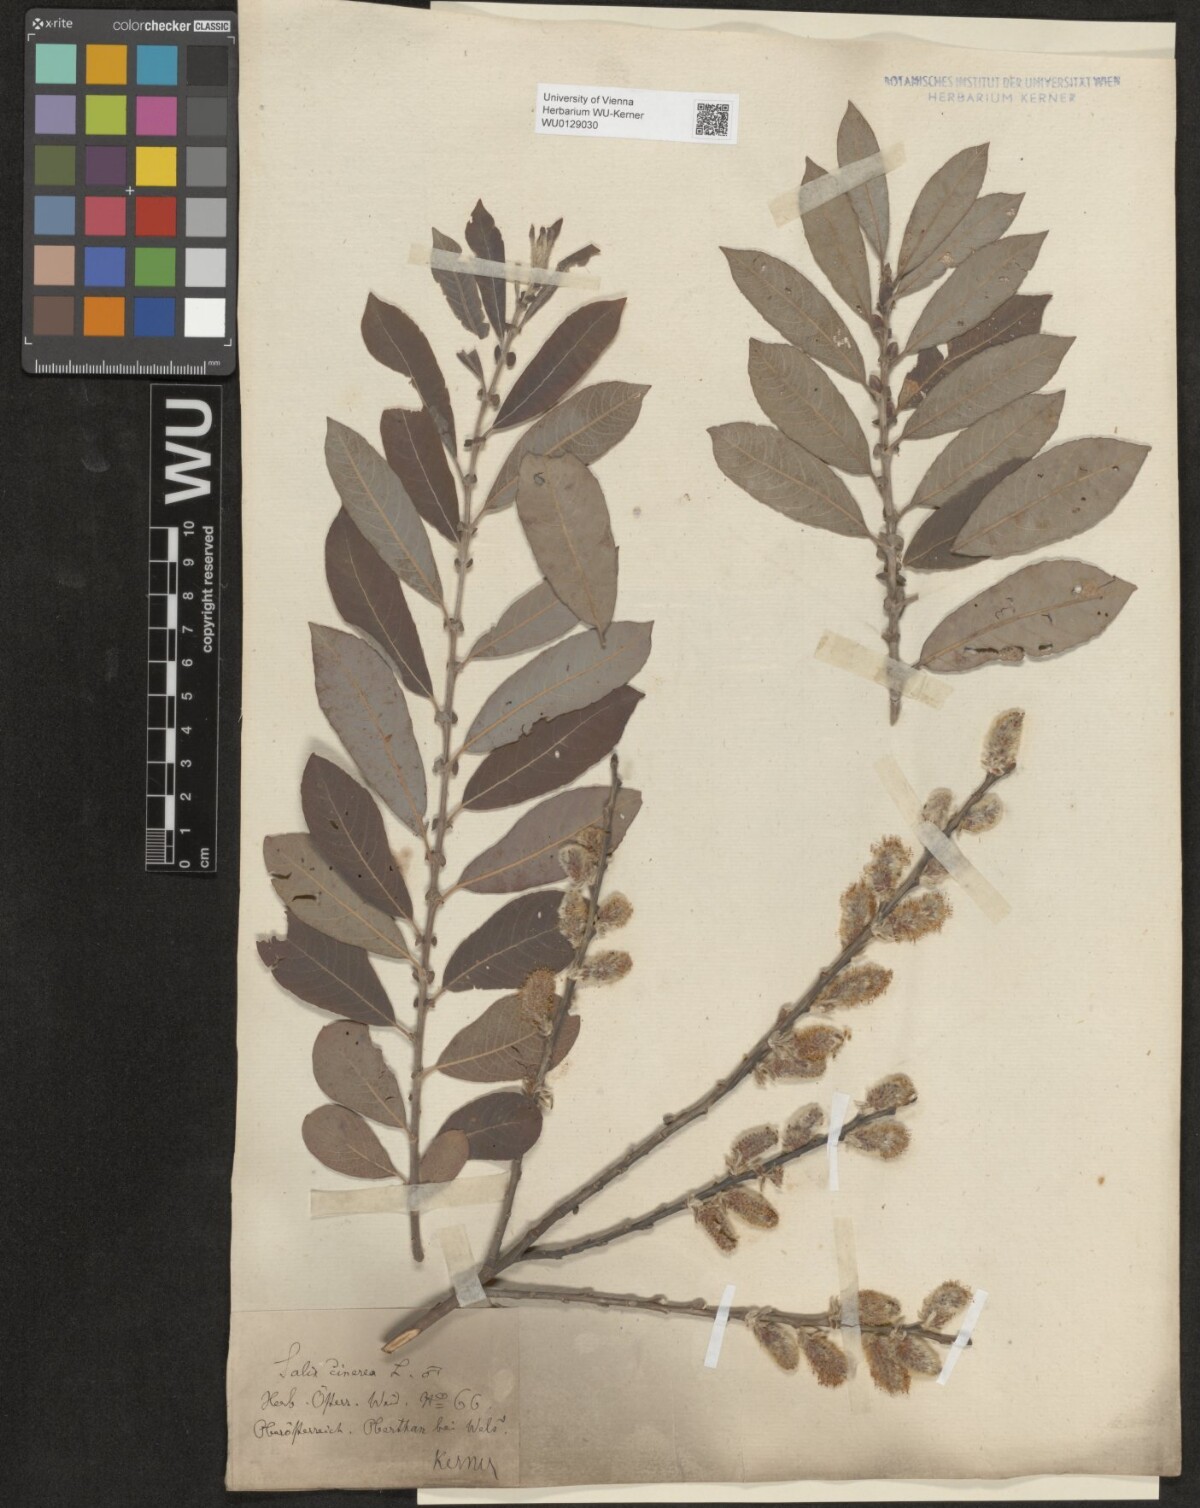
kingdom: Plantae
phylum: Tracheophyta
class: Magnoliopsida
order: Malpighiales
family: Salicaceae
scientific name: Salicaceae
